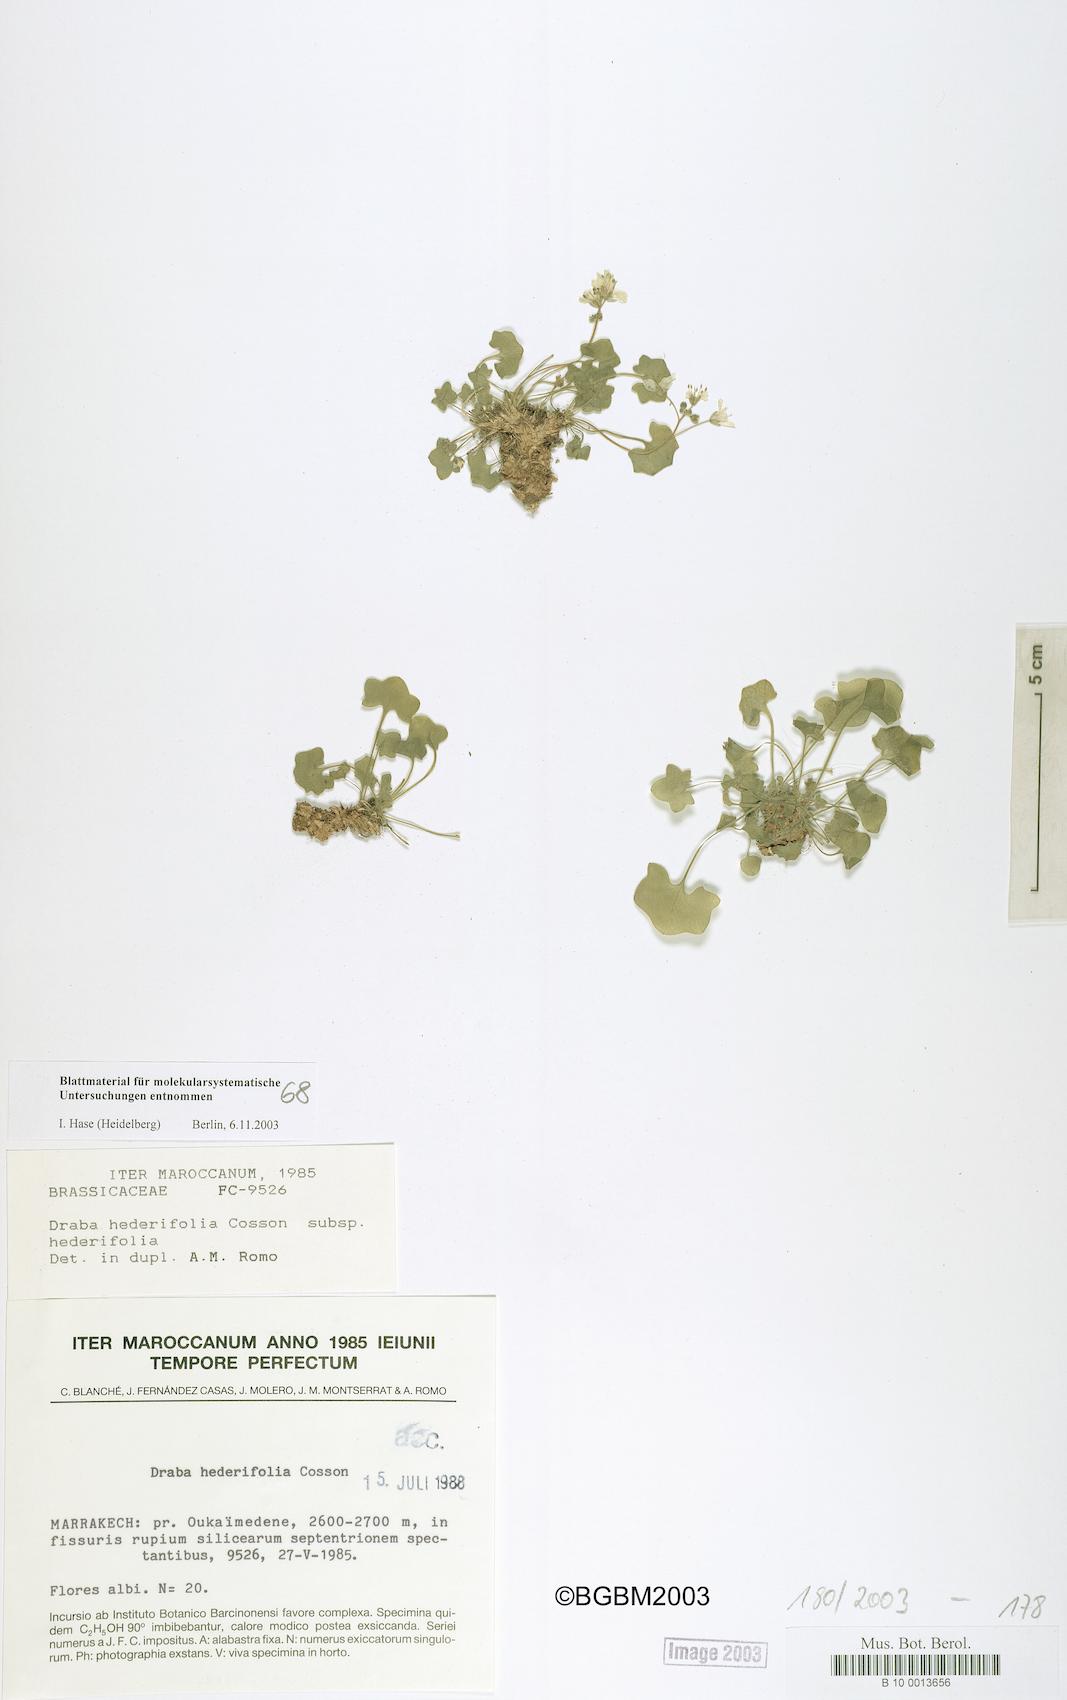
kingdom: Plantae
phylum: Tracheophyta
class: Magnoliopsida
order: Brassicales
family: Brassicaceae
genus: Draba
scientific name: Draba hederifolia
